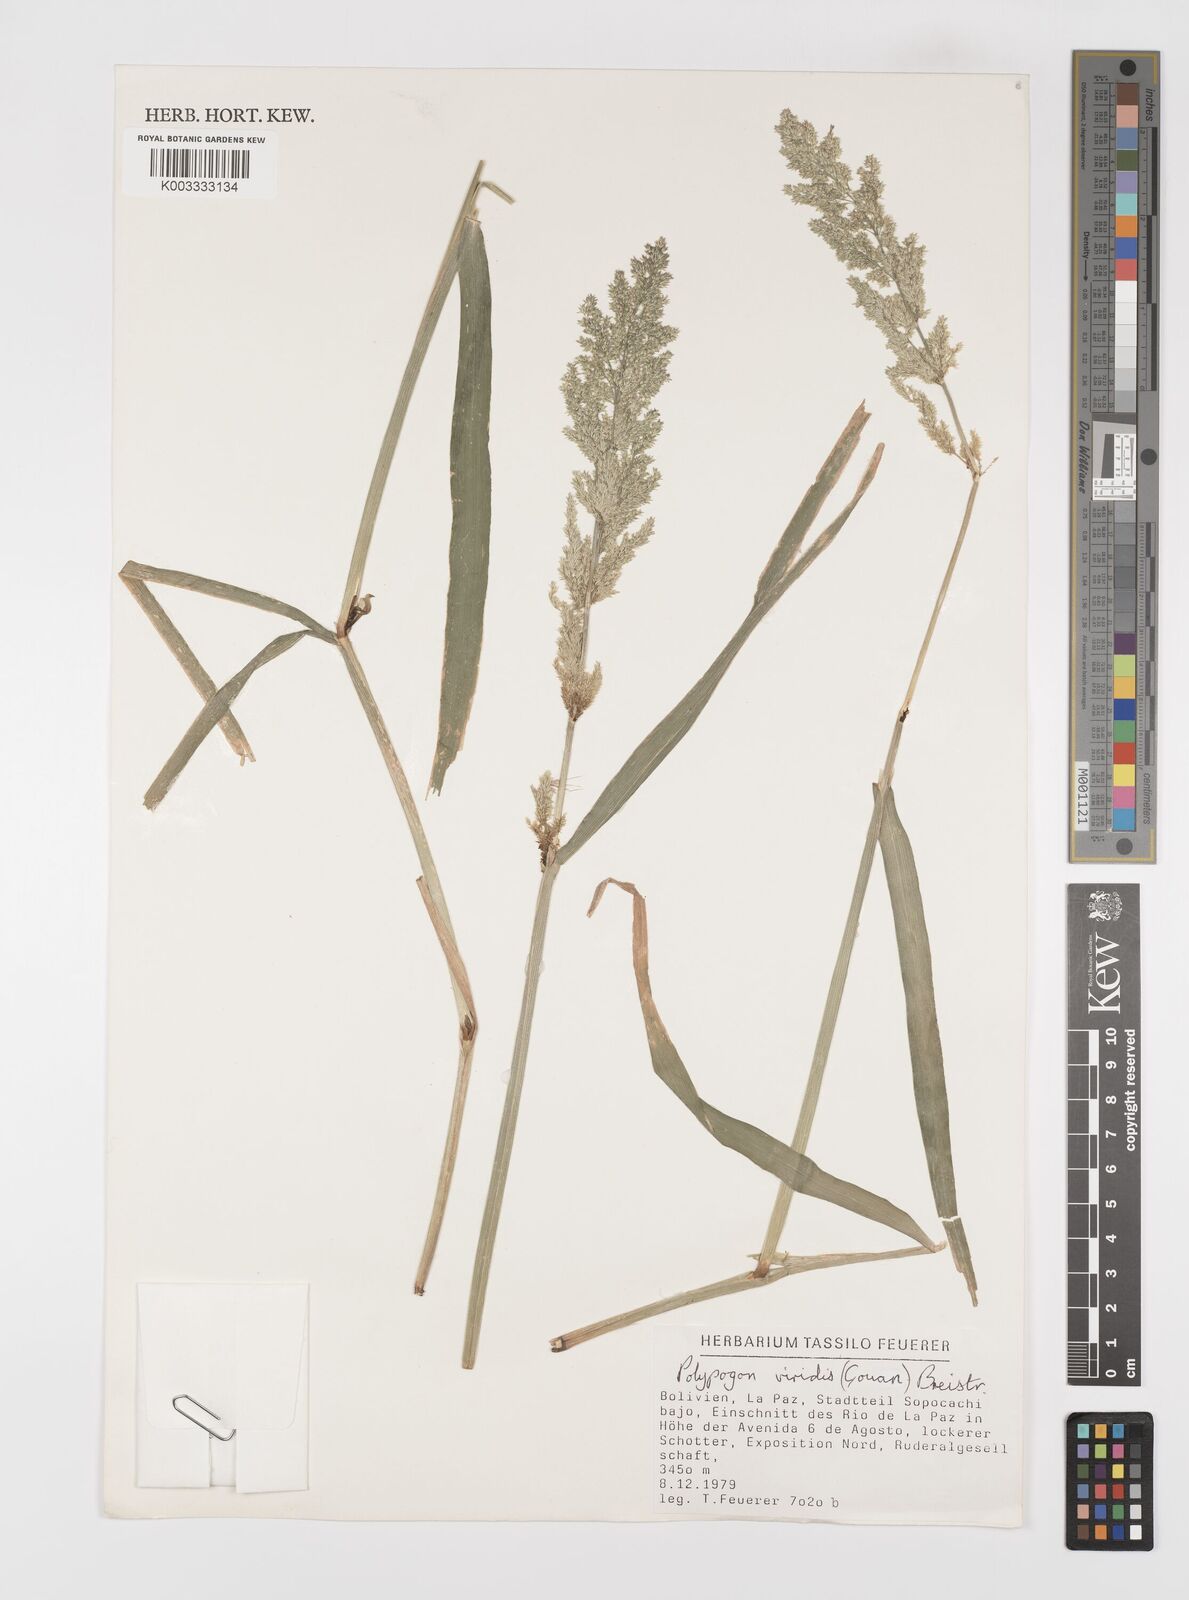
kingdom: Plantae
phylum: Tracheophyta
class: Liliopsida
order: Poales
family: Poaceae
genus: Polypogon
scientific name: Polypogon viridis
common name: Water bent
